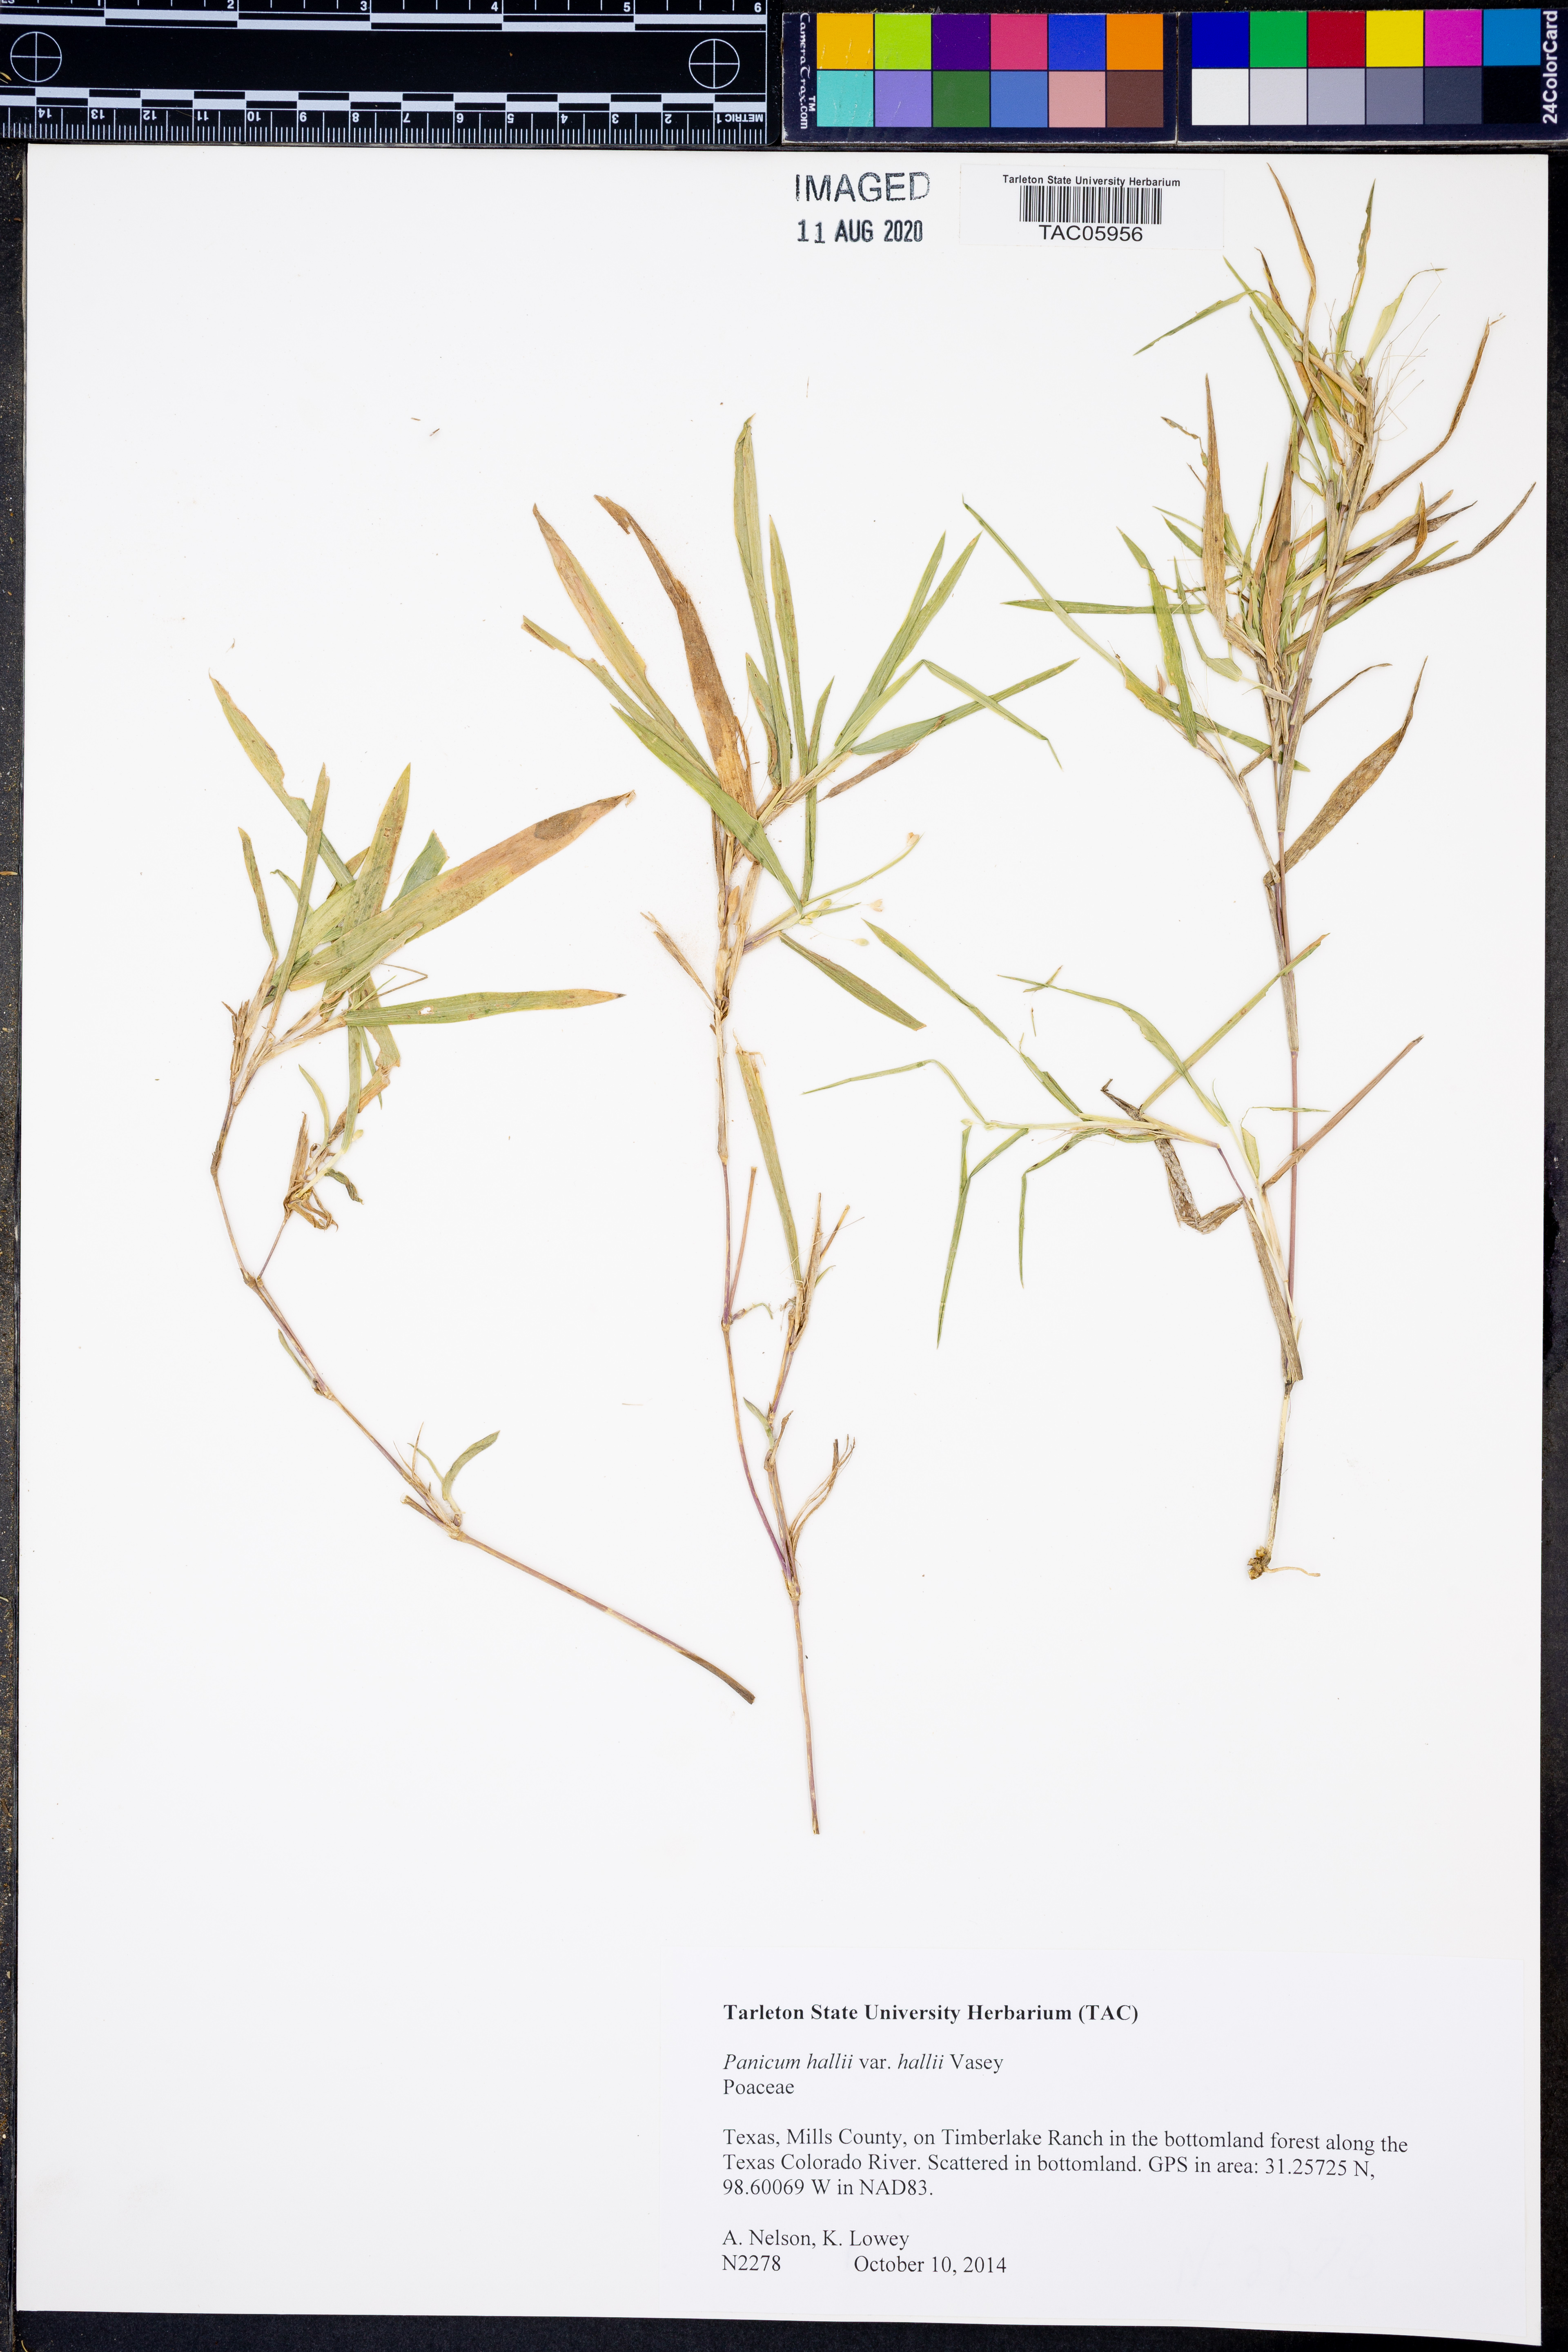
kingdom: Plantae
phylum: Tracheophyta
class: Liliopsida
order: Poales
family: Poaceae
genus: Panicum
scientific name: Panicum hallii
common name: Hall's witchgrass
